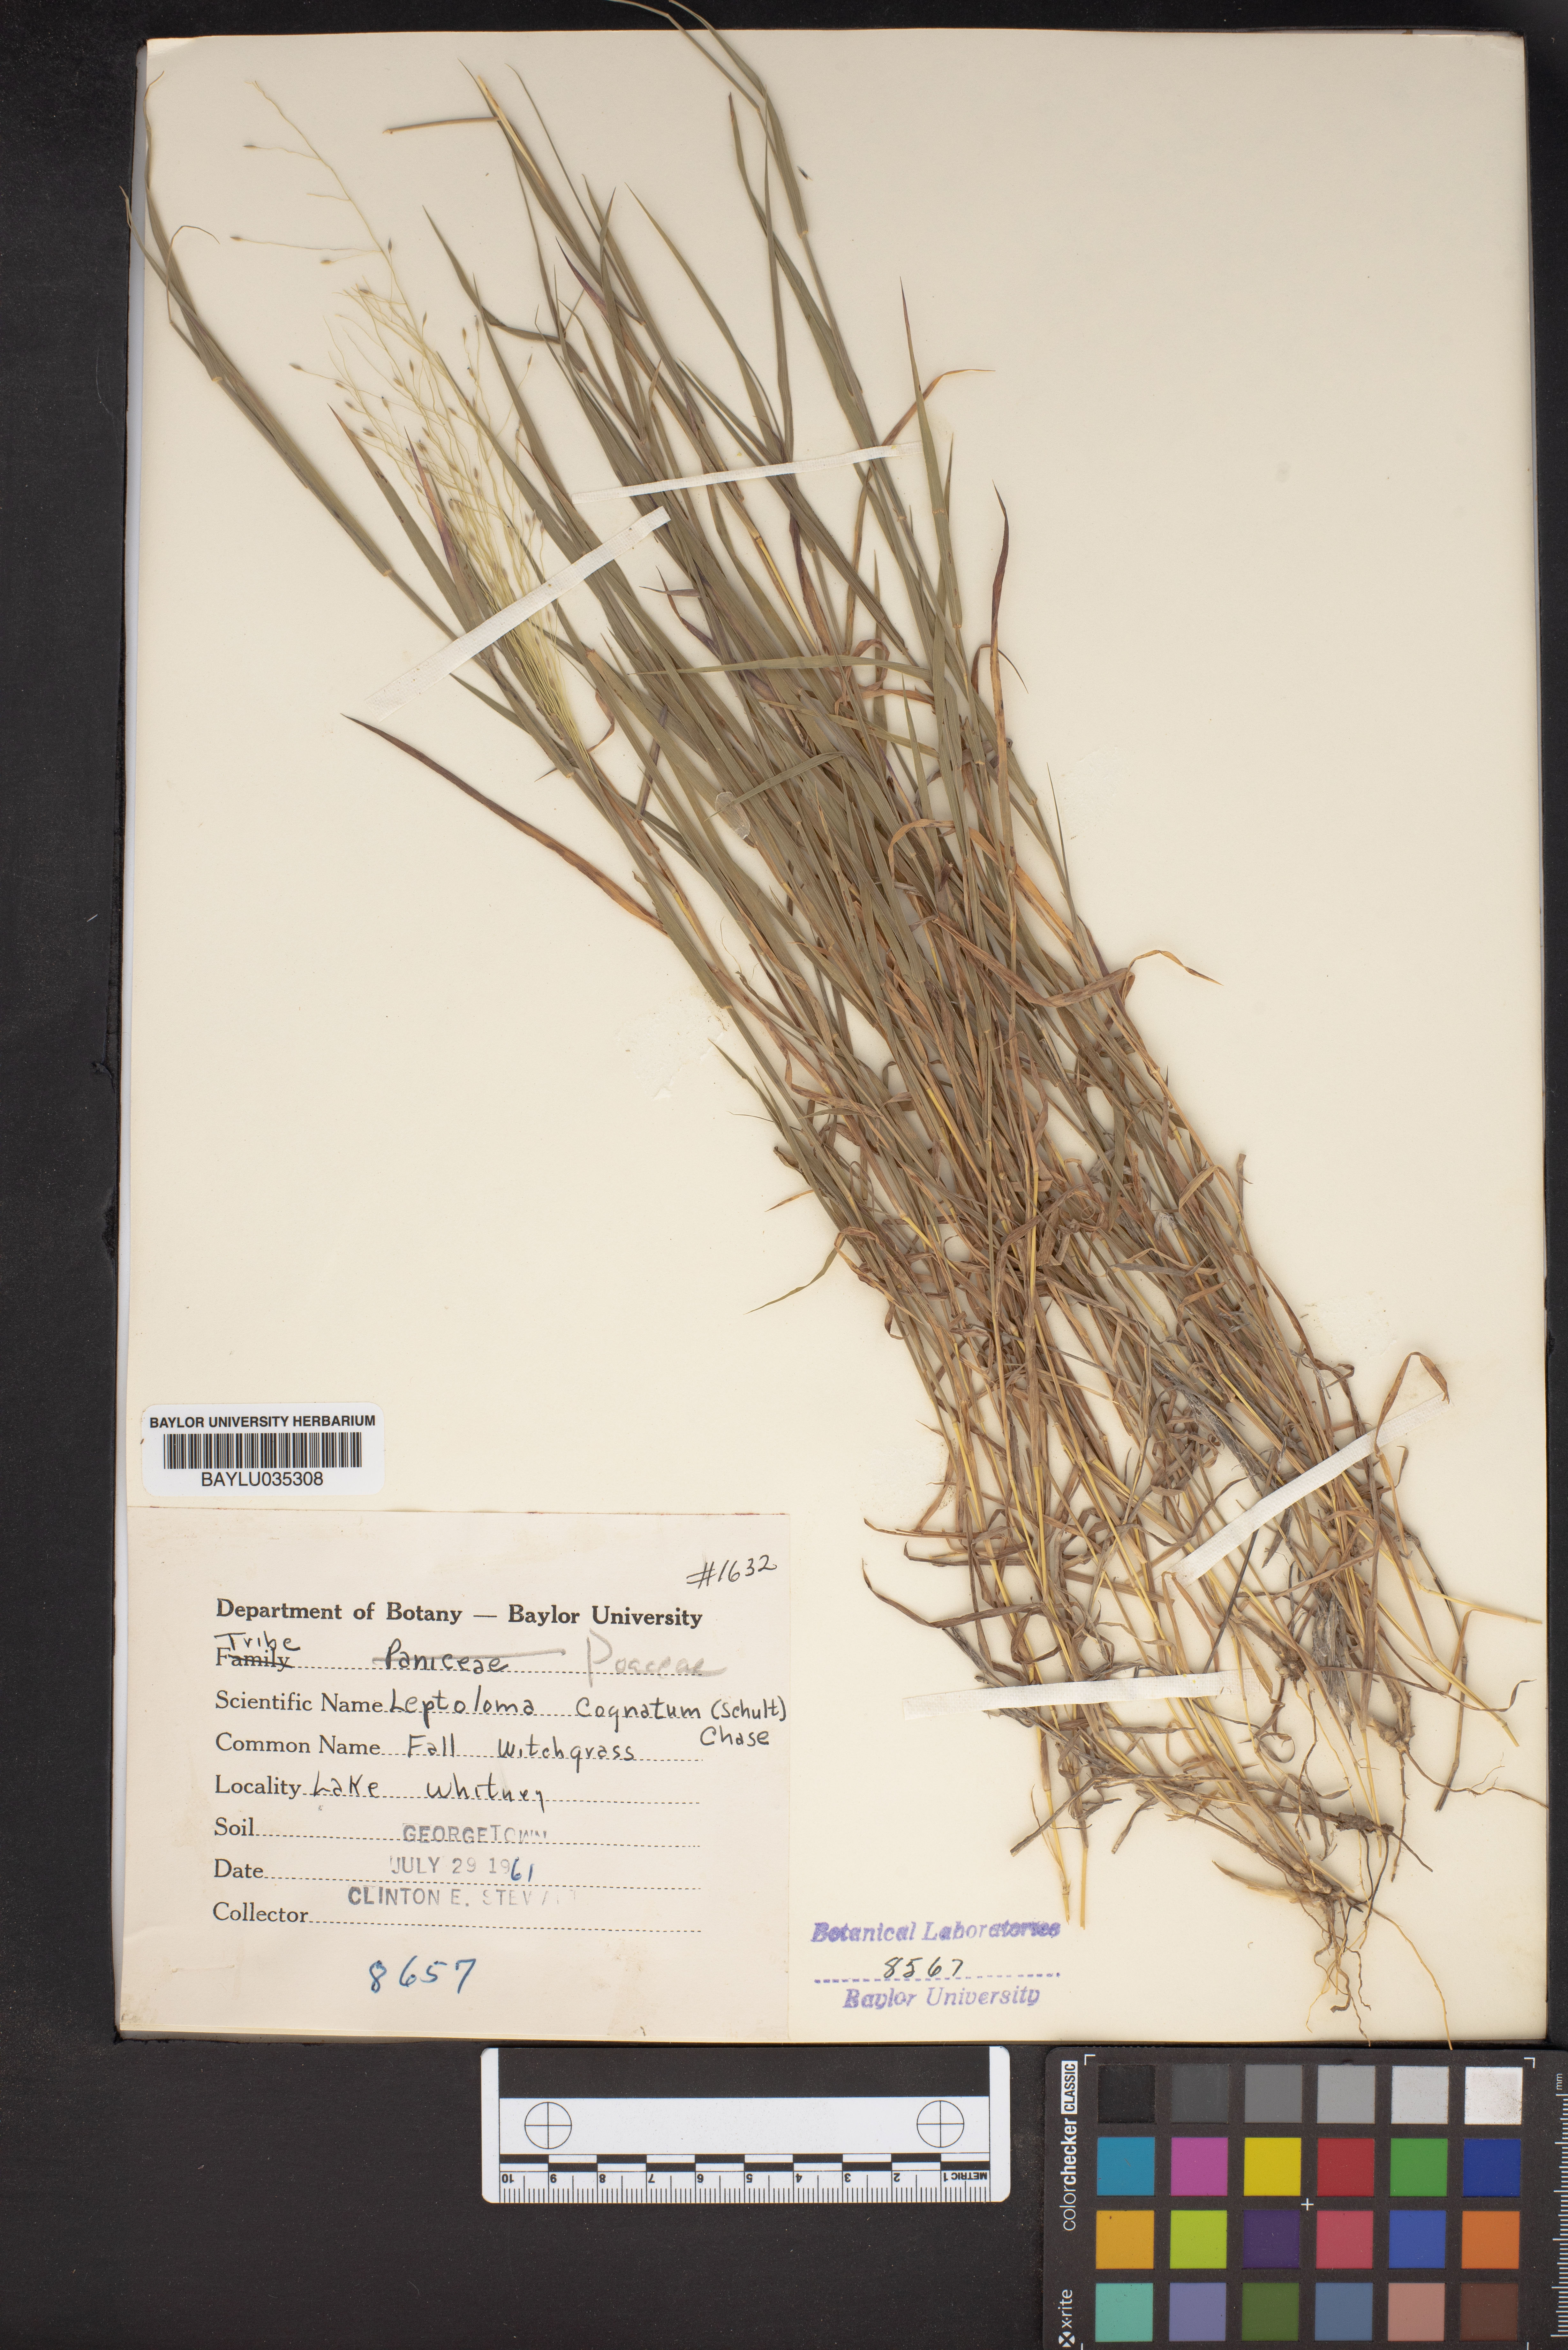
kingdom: Plantae
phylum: Tracheophyta
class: Liliopsida
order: Poales
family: Poaceae
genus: Digitaria
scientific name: Digitaria cognata
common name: Fall witchgrass
